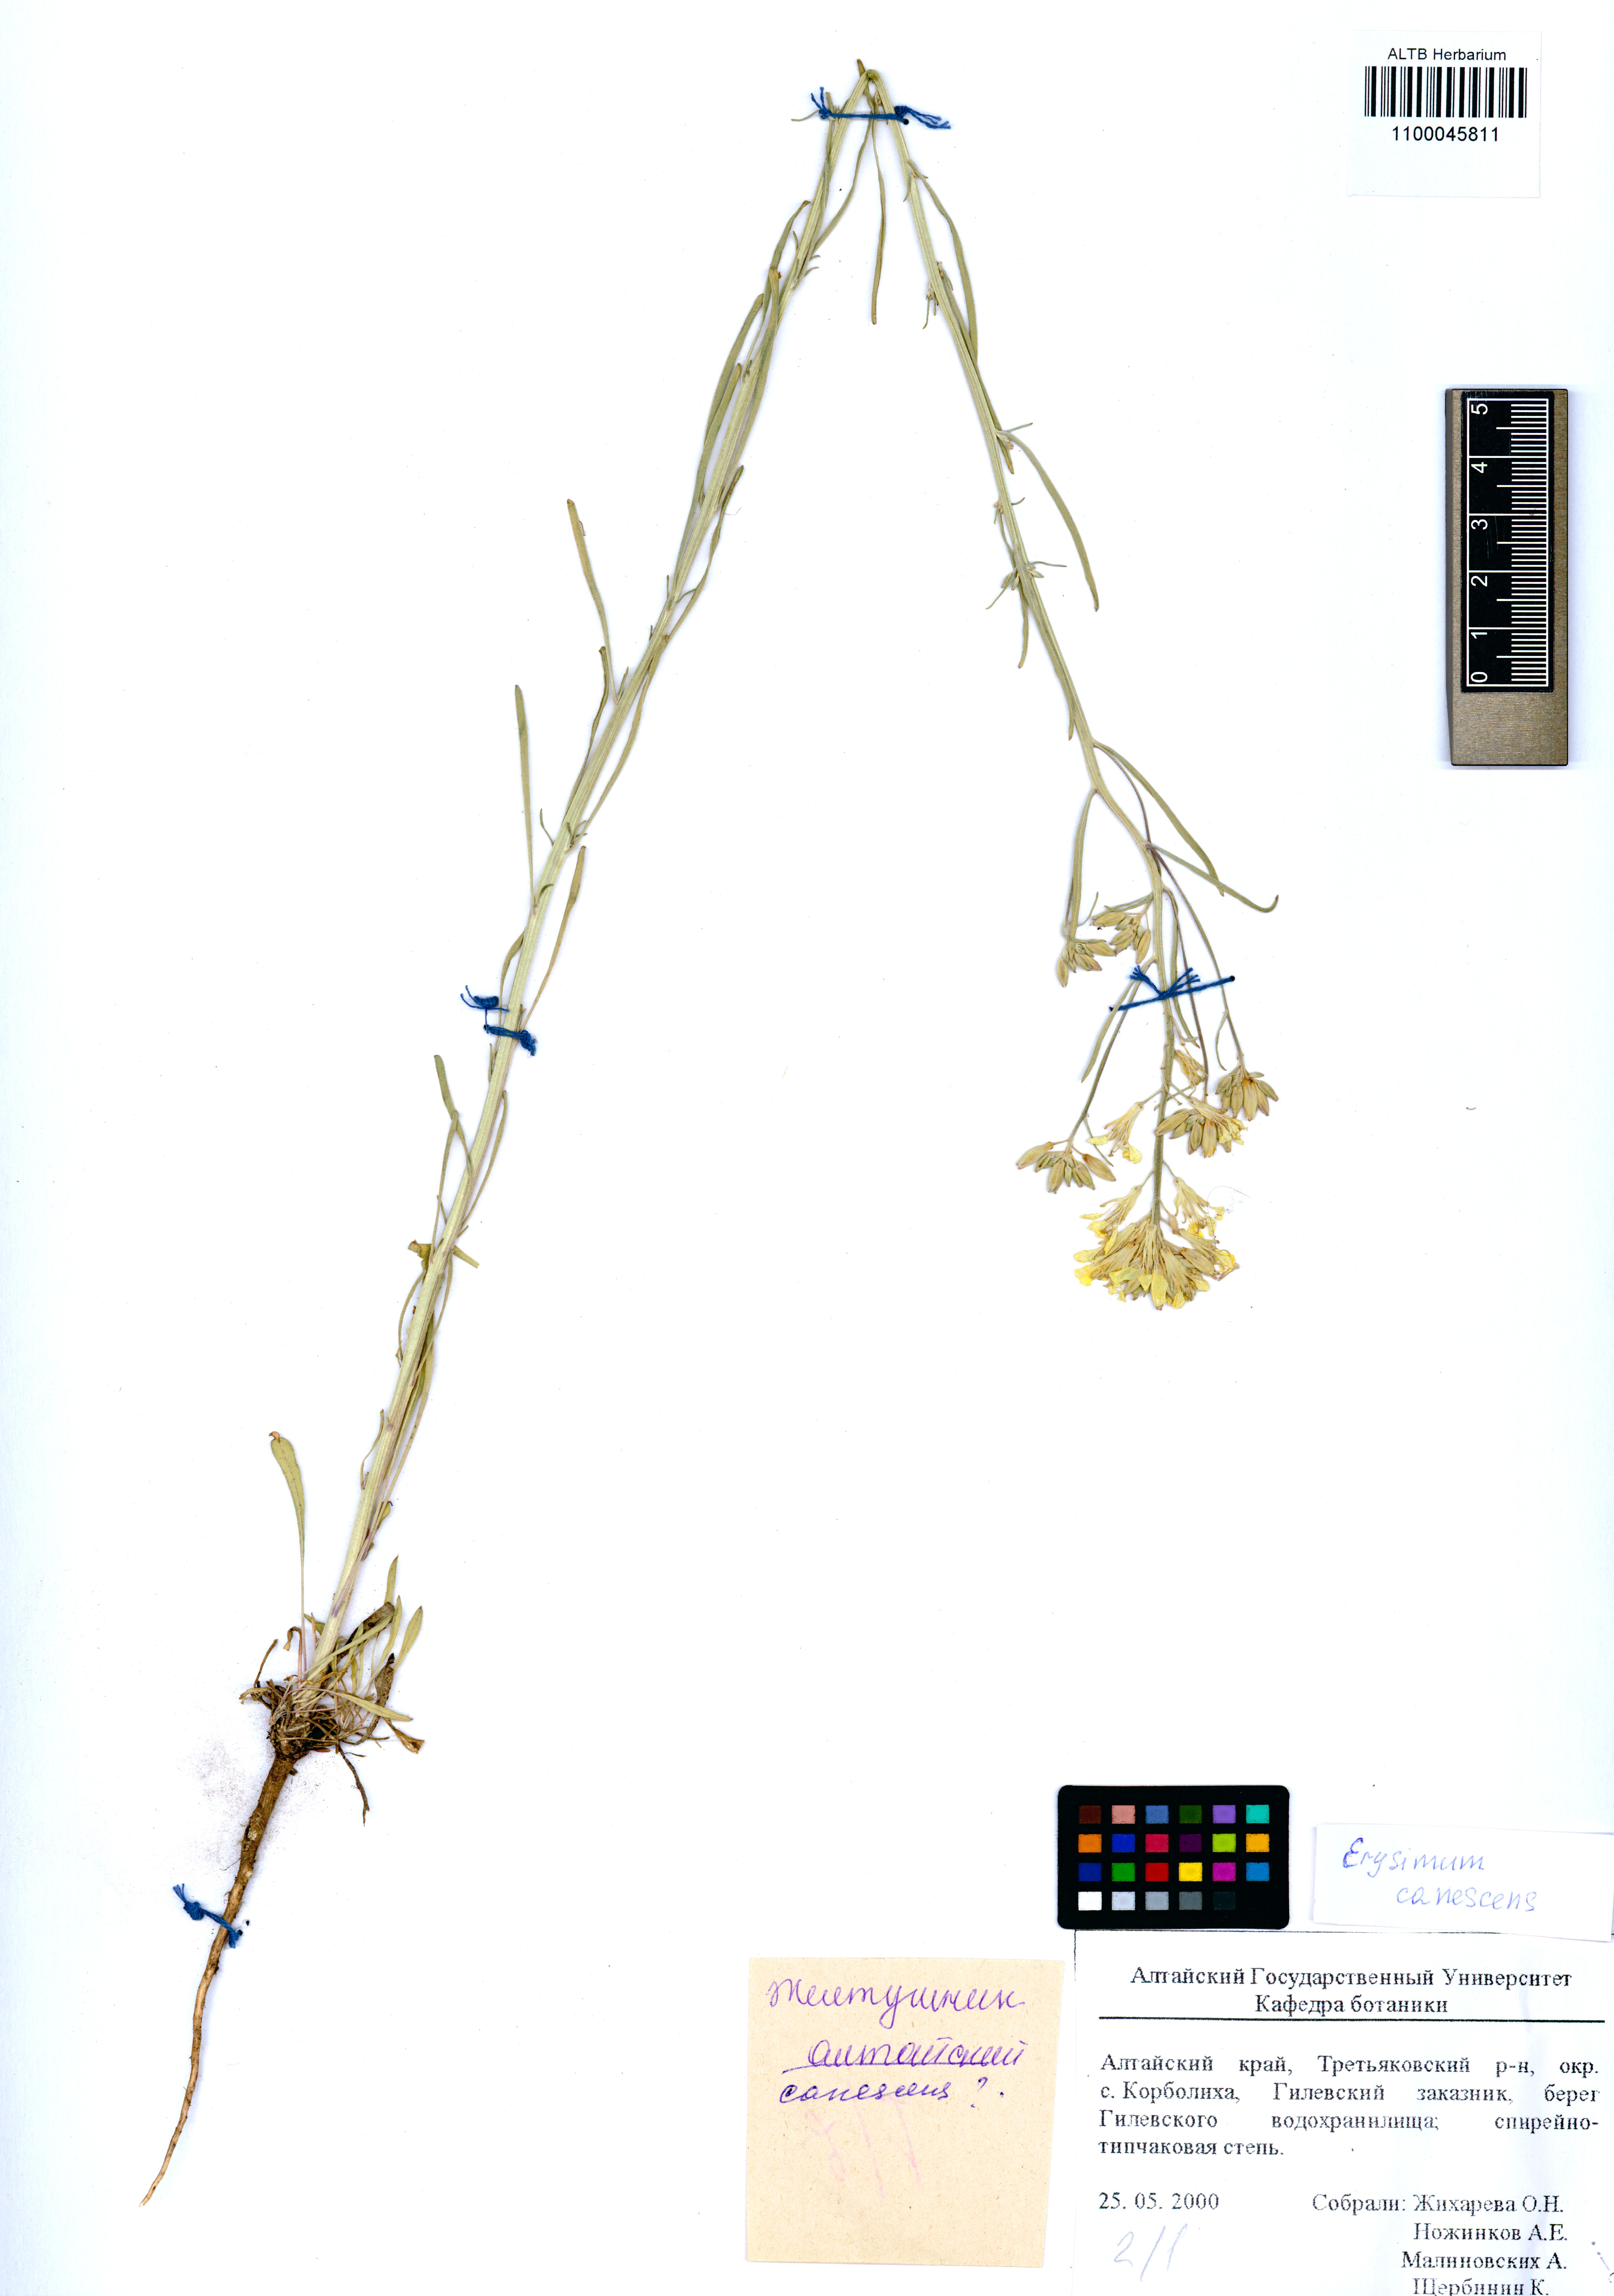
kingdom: Plantae
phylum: Tracheophyta
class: Magnoliopsida
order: Brassicales
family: Brassicaceae
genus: Erysimum
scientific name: Erysimum canescens
